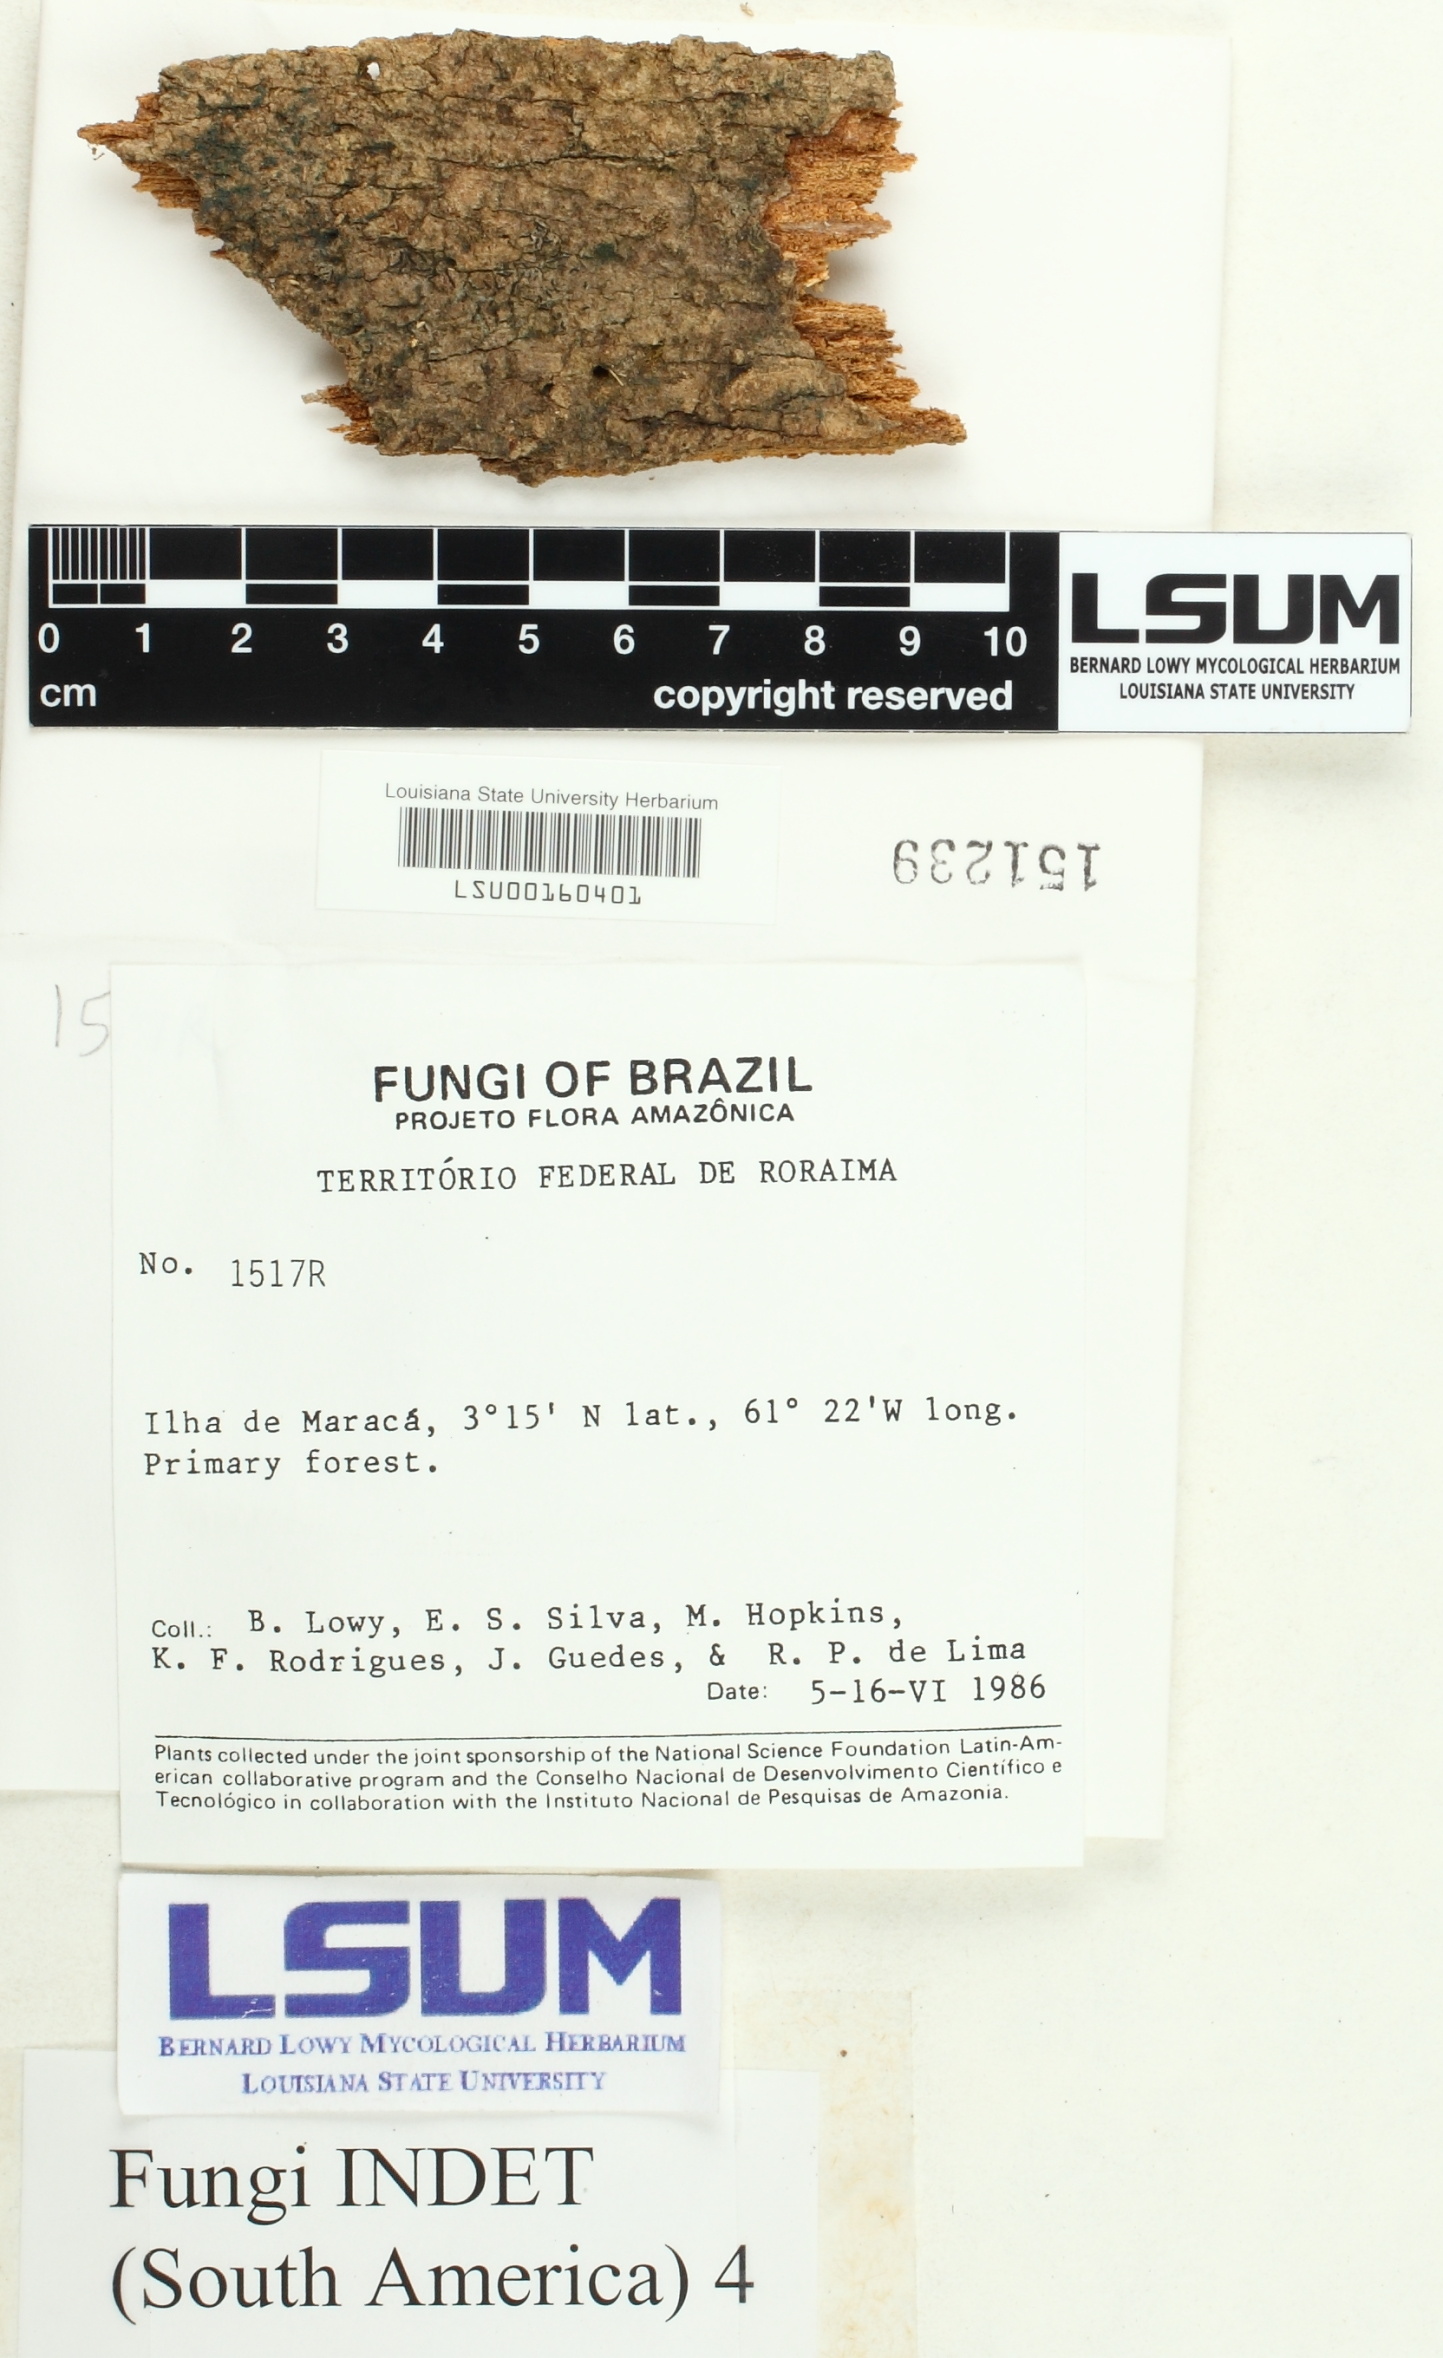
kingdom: Fungi
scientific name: Fungi
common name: Fungi
